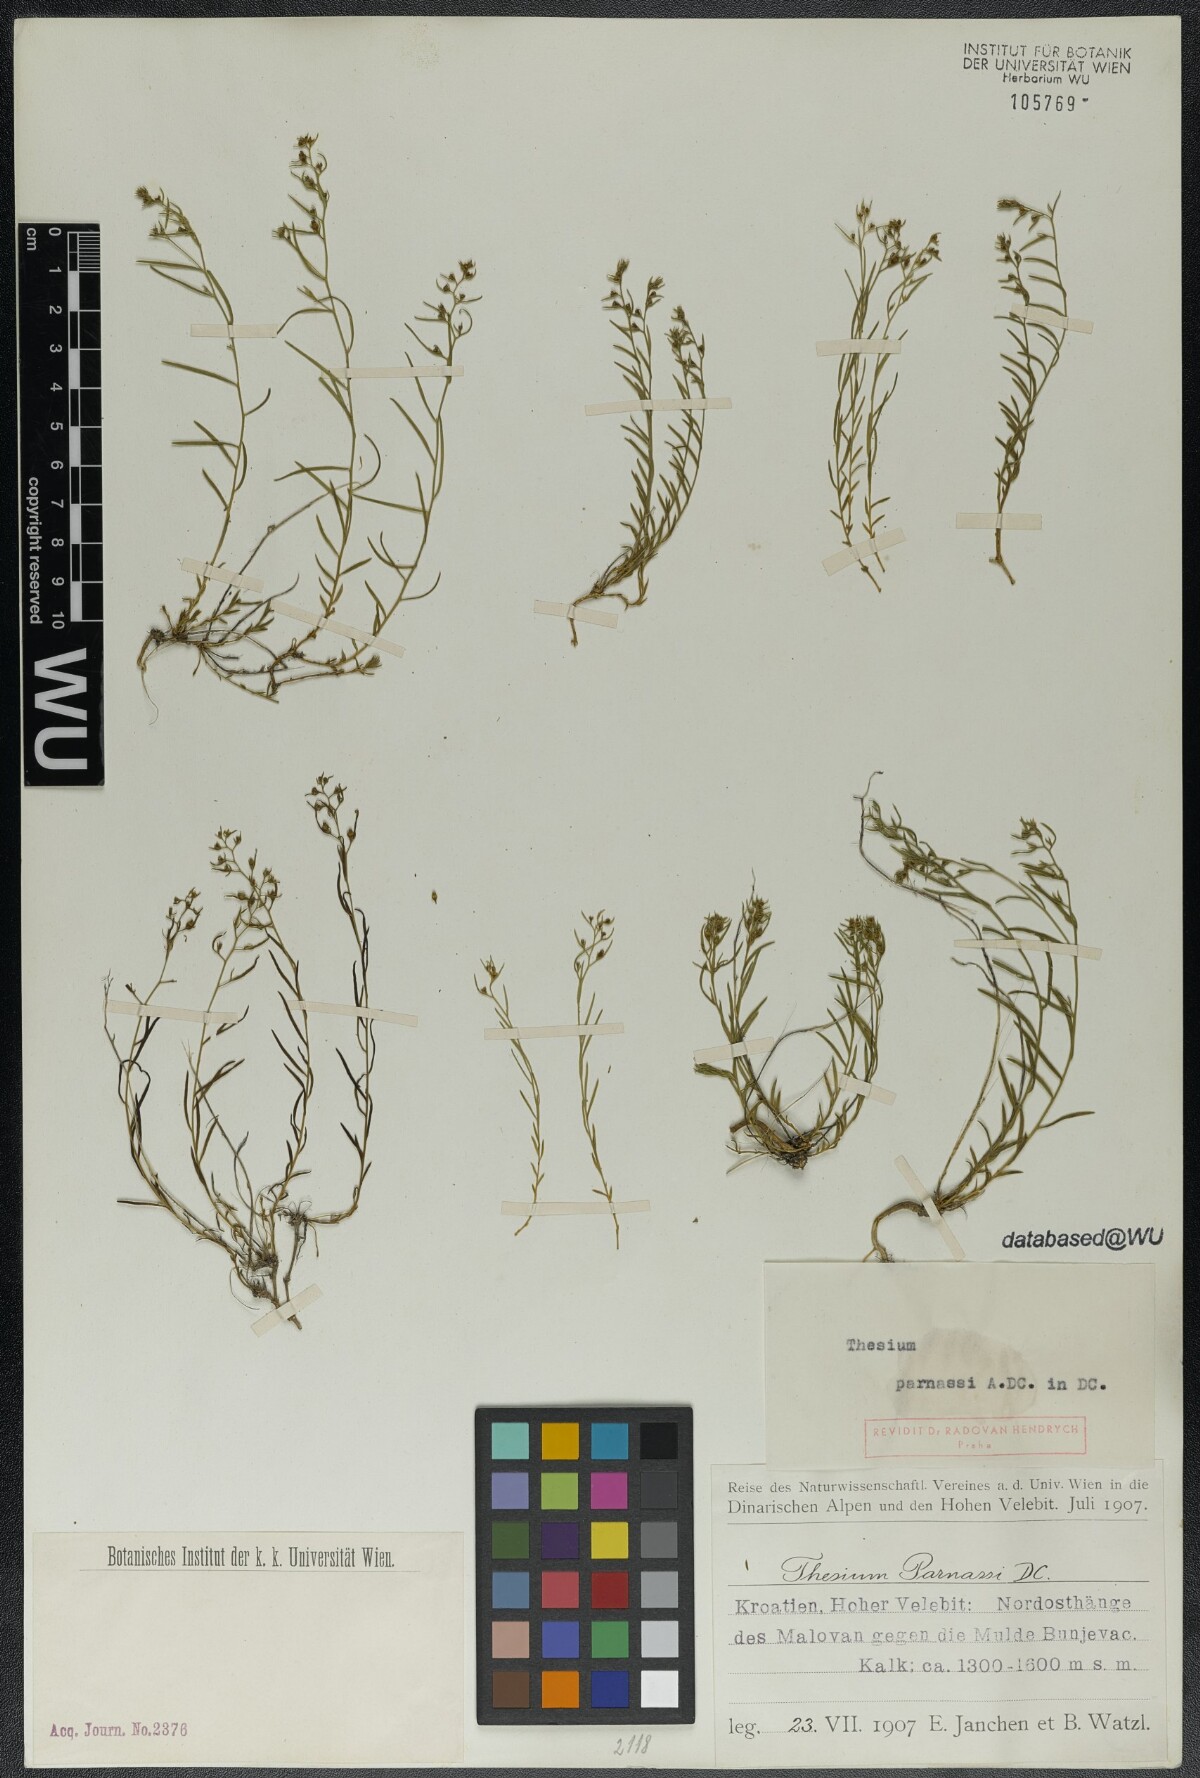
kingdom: Plantae
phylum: Tracheophyta
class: Magnoliopsida
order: Santalales
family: Thesiaceae
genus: Thesium
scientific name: Thesium parnassi
